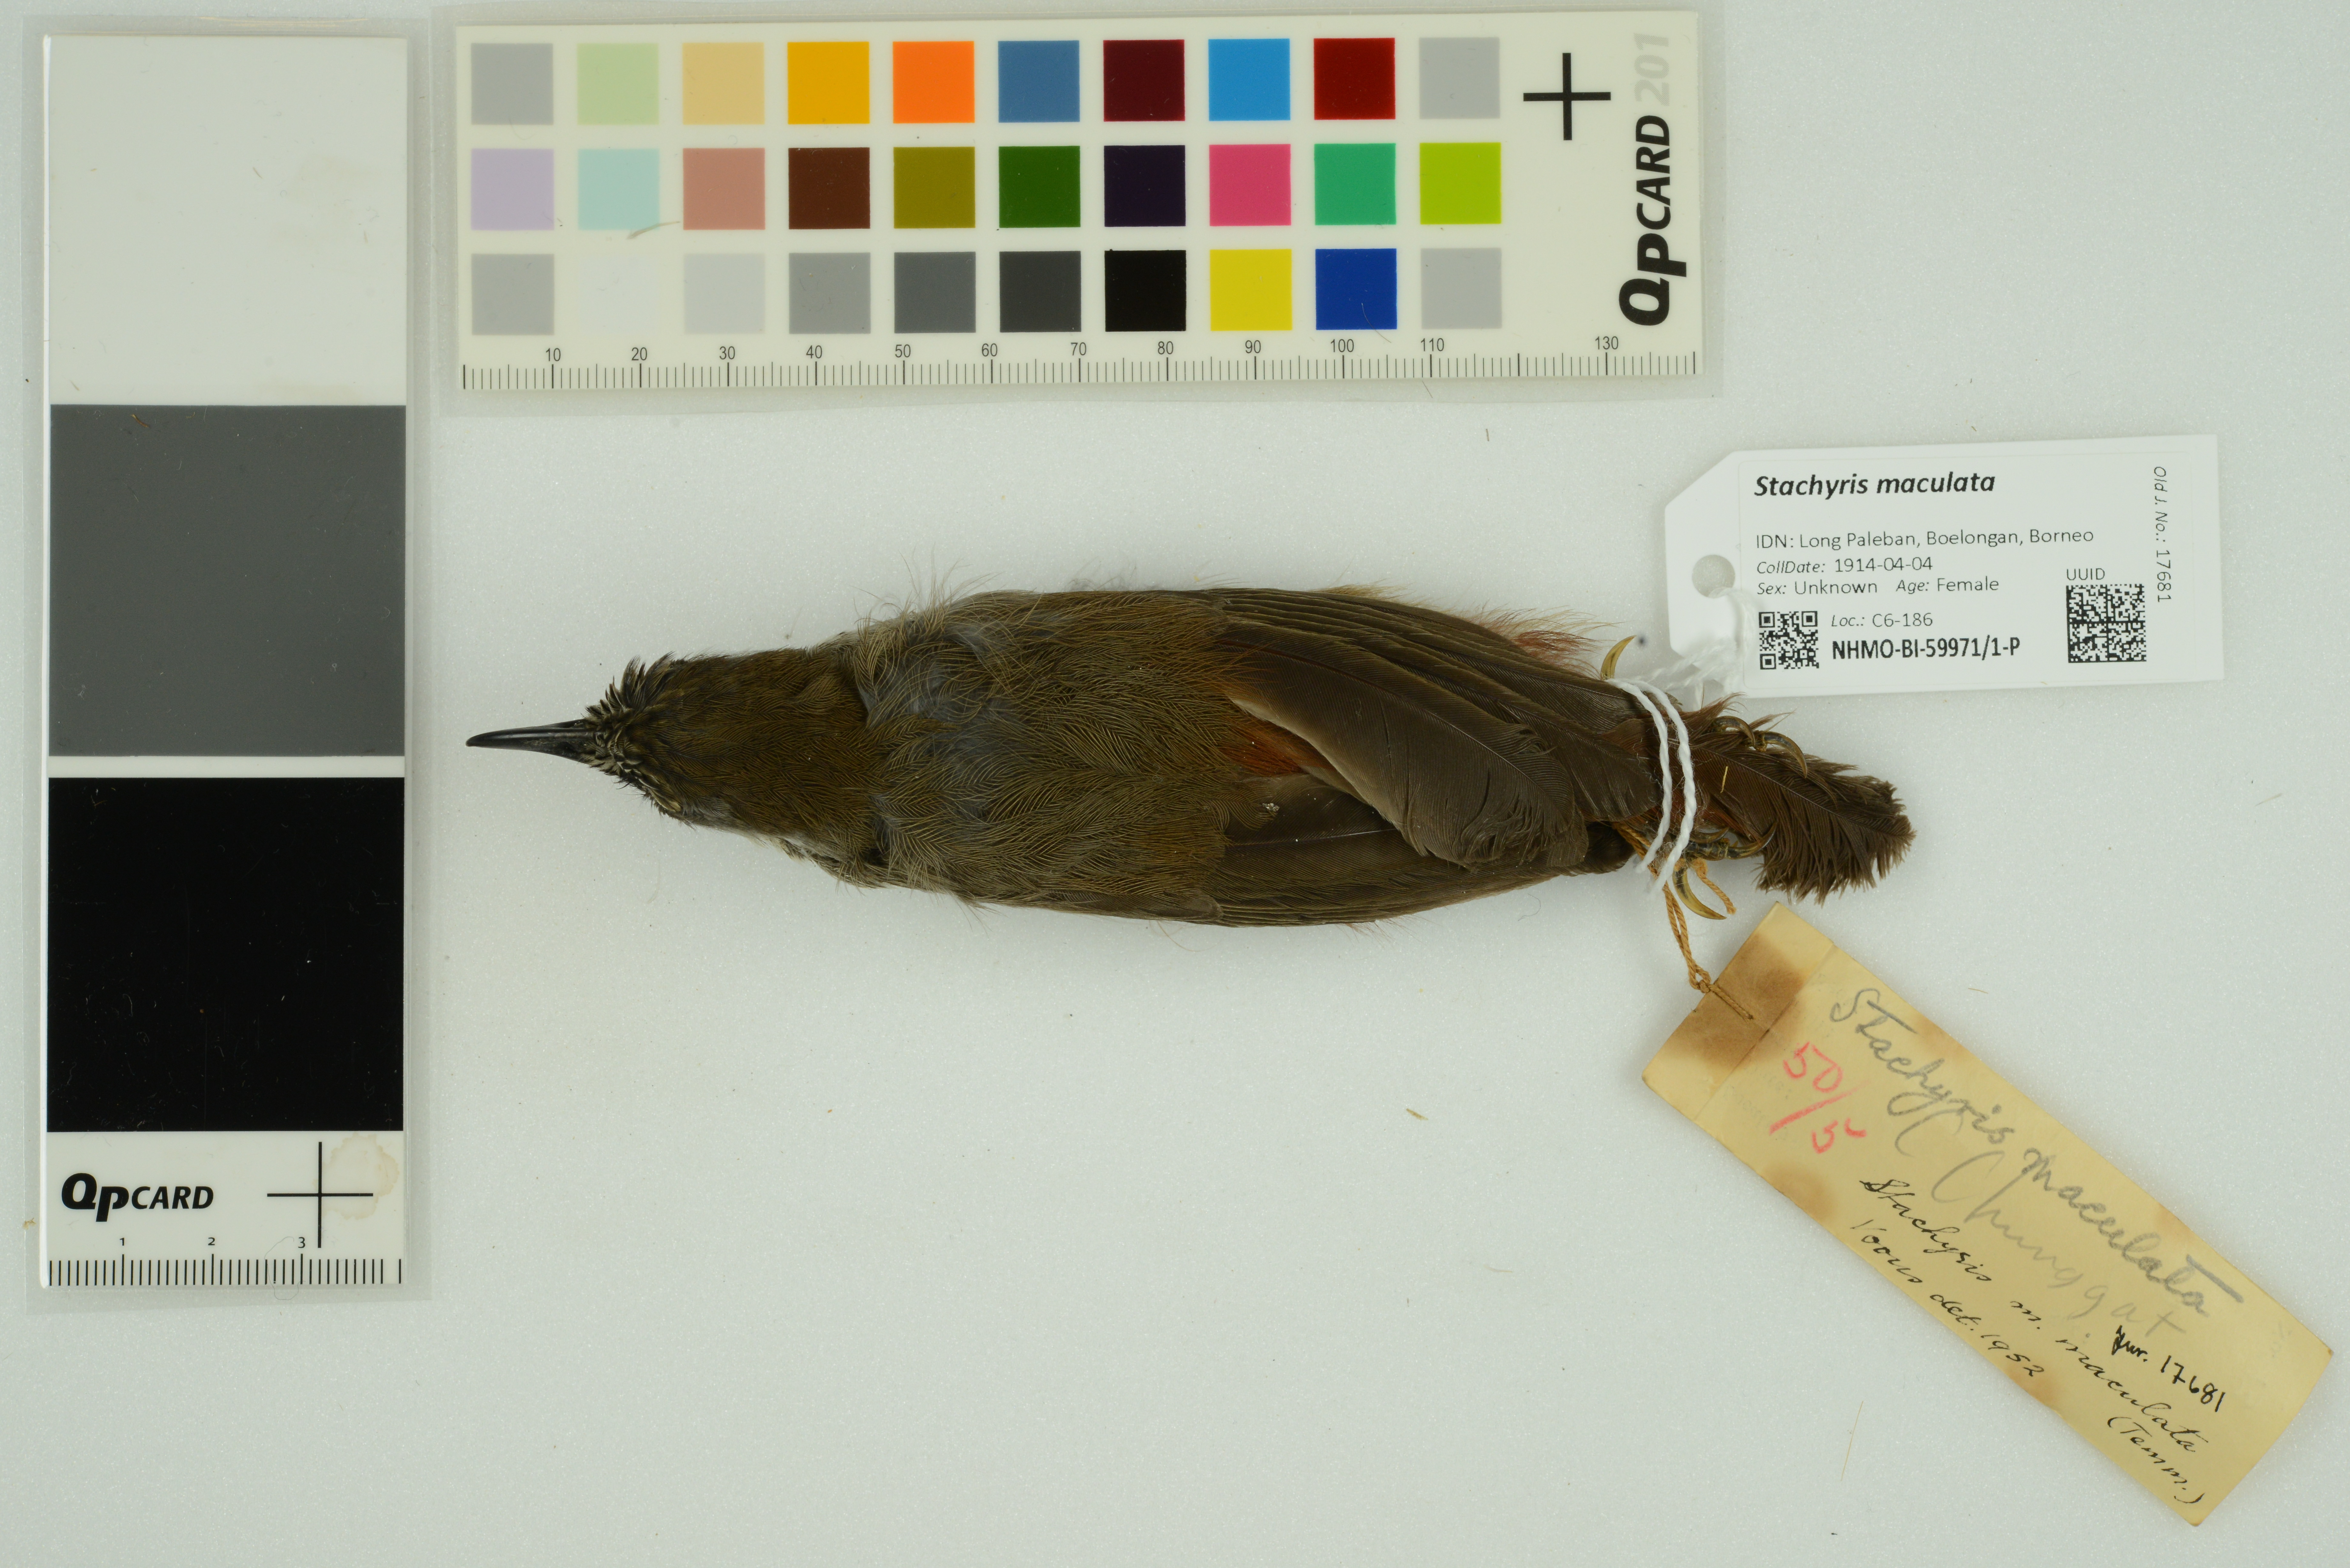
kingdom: Animalia
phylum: Chordata
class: Aves
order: Passeriformes
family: Timaliidae
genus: Stachyris
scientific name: Stachyris maculata
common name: Chestnut-rumped babbler
